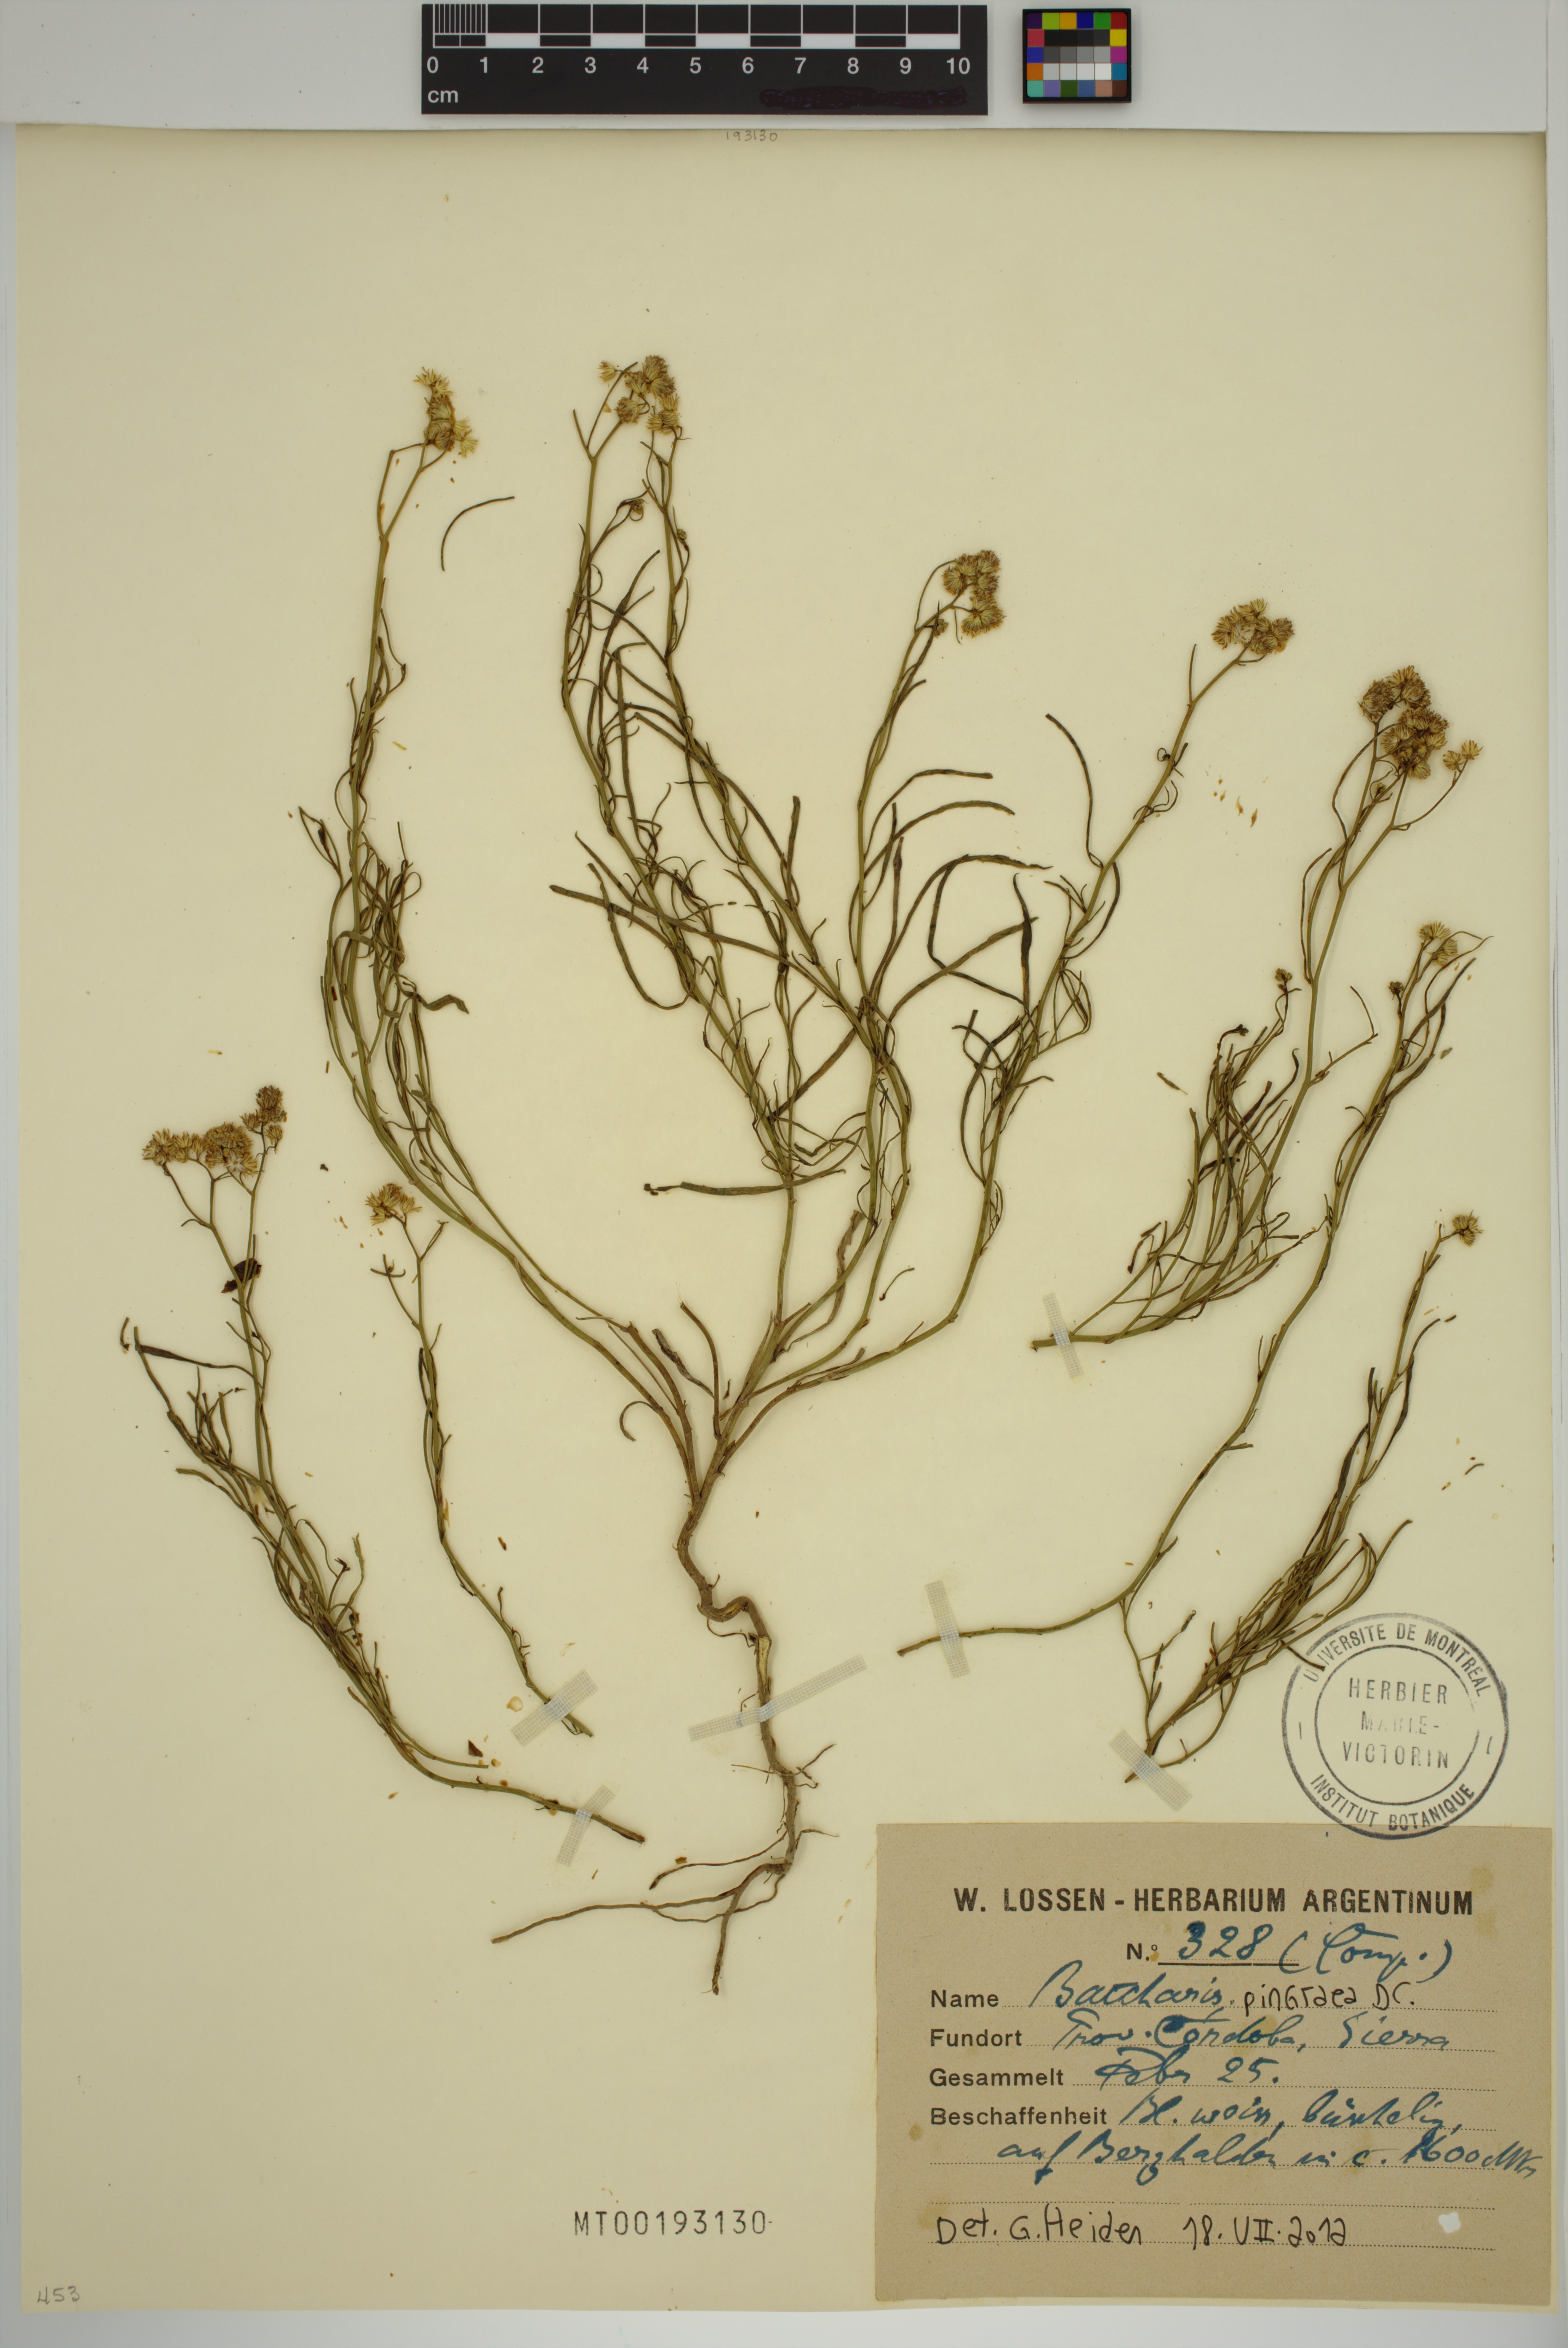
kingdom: Plantae
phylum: Tracheophyta
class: Magnoliopsida
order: Asterales
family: Asteraceae
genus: Baccharis
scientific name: Baccharis glutinosa
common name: Saltmarsh baccharis
